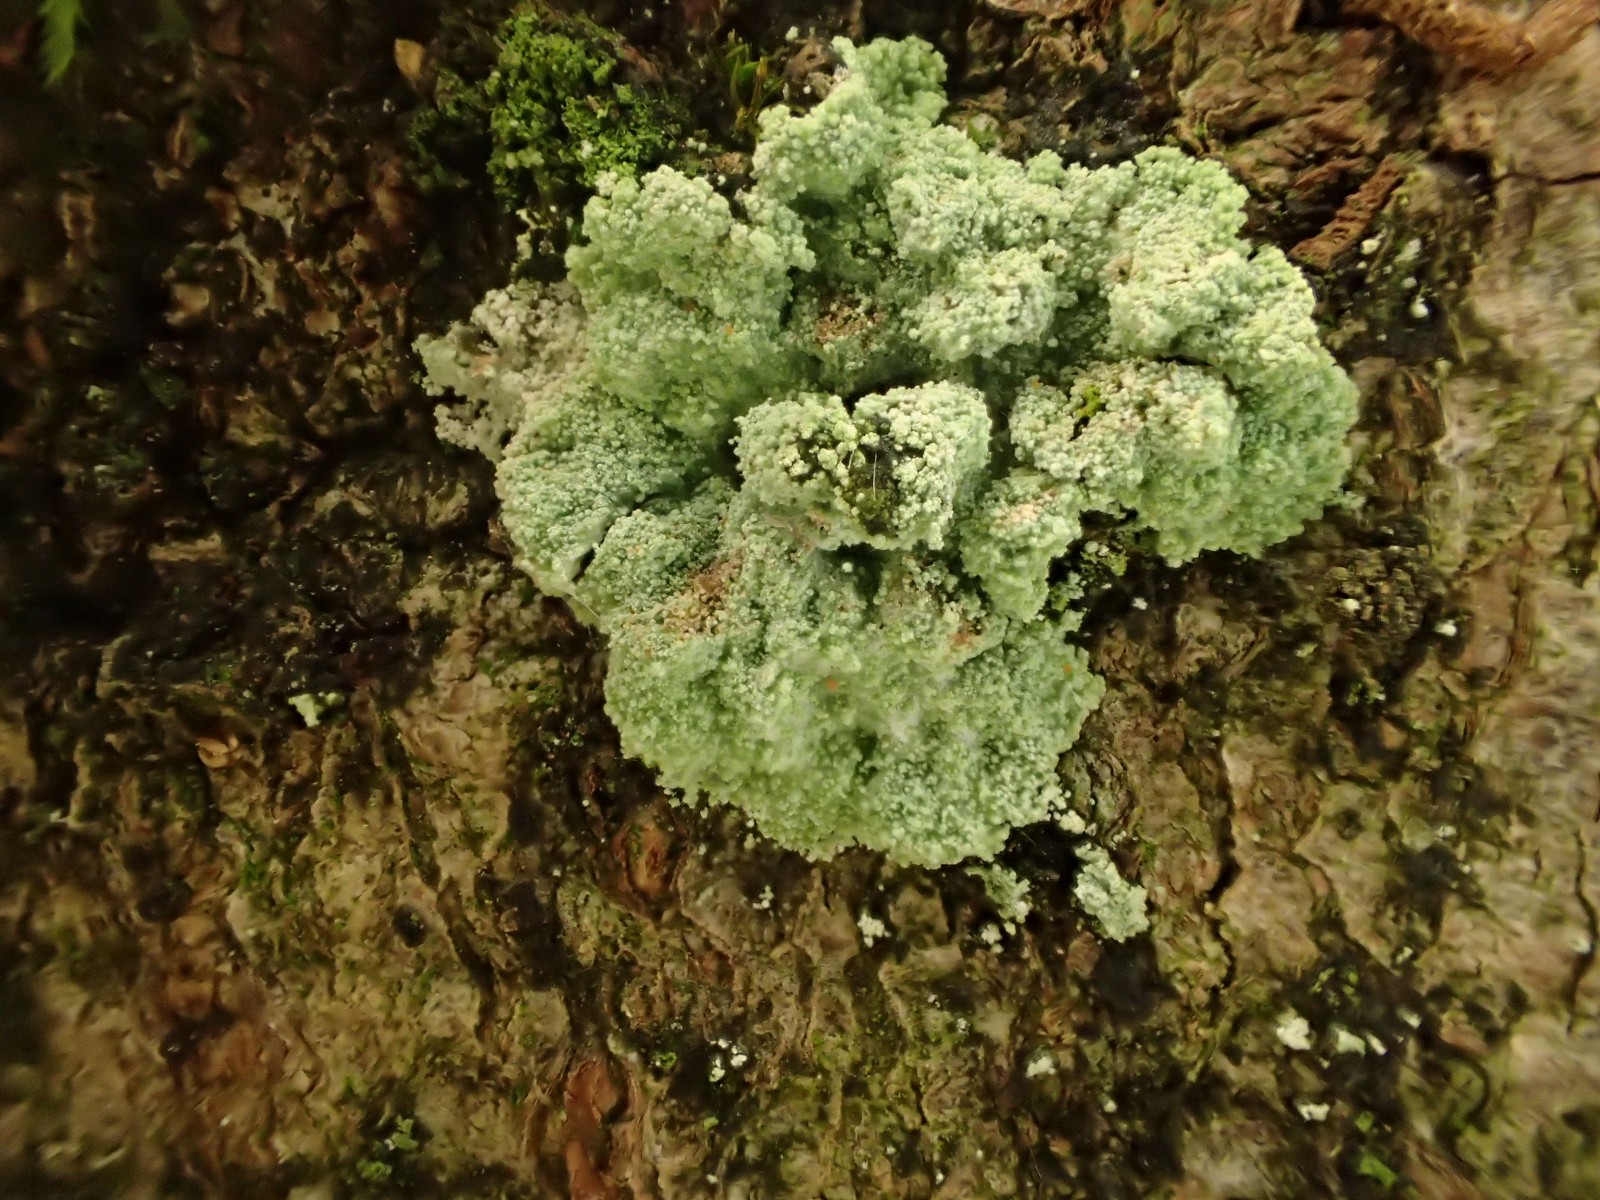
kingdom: Fungi
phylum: Ascomycota
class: Lecanoromycetes
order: Lecanorales
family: Stereocaulaceae
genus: Lepraria
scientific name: Lepraria lobificans
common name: grøn støvlav
